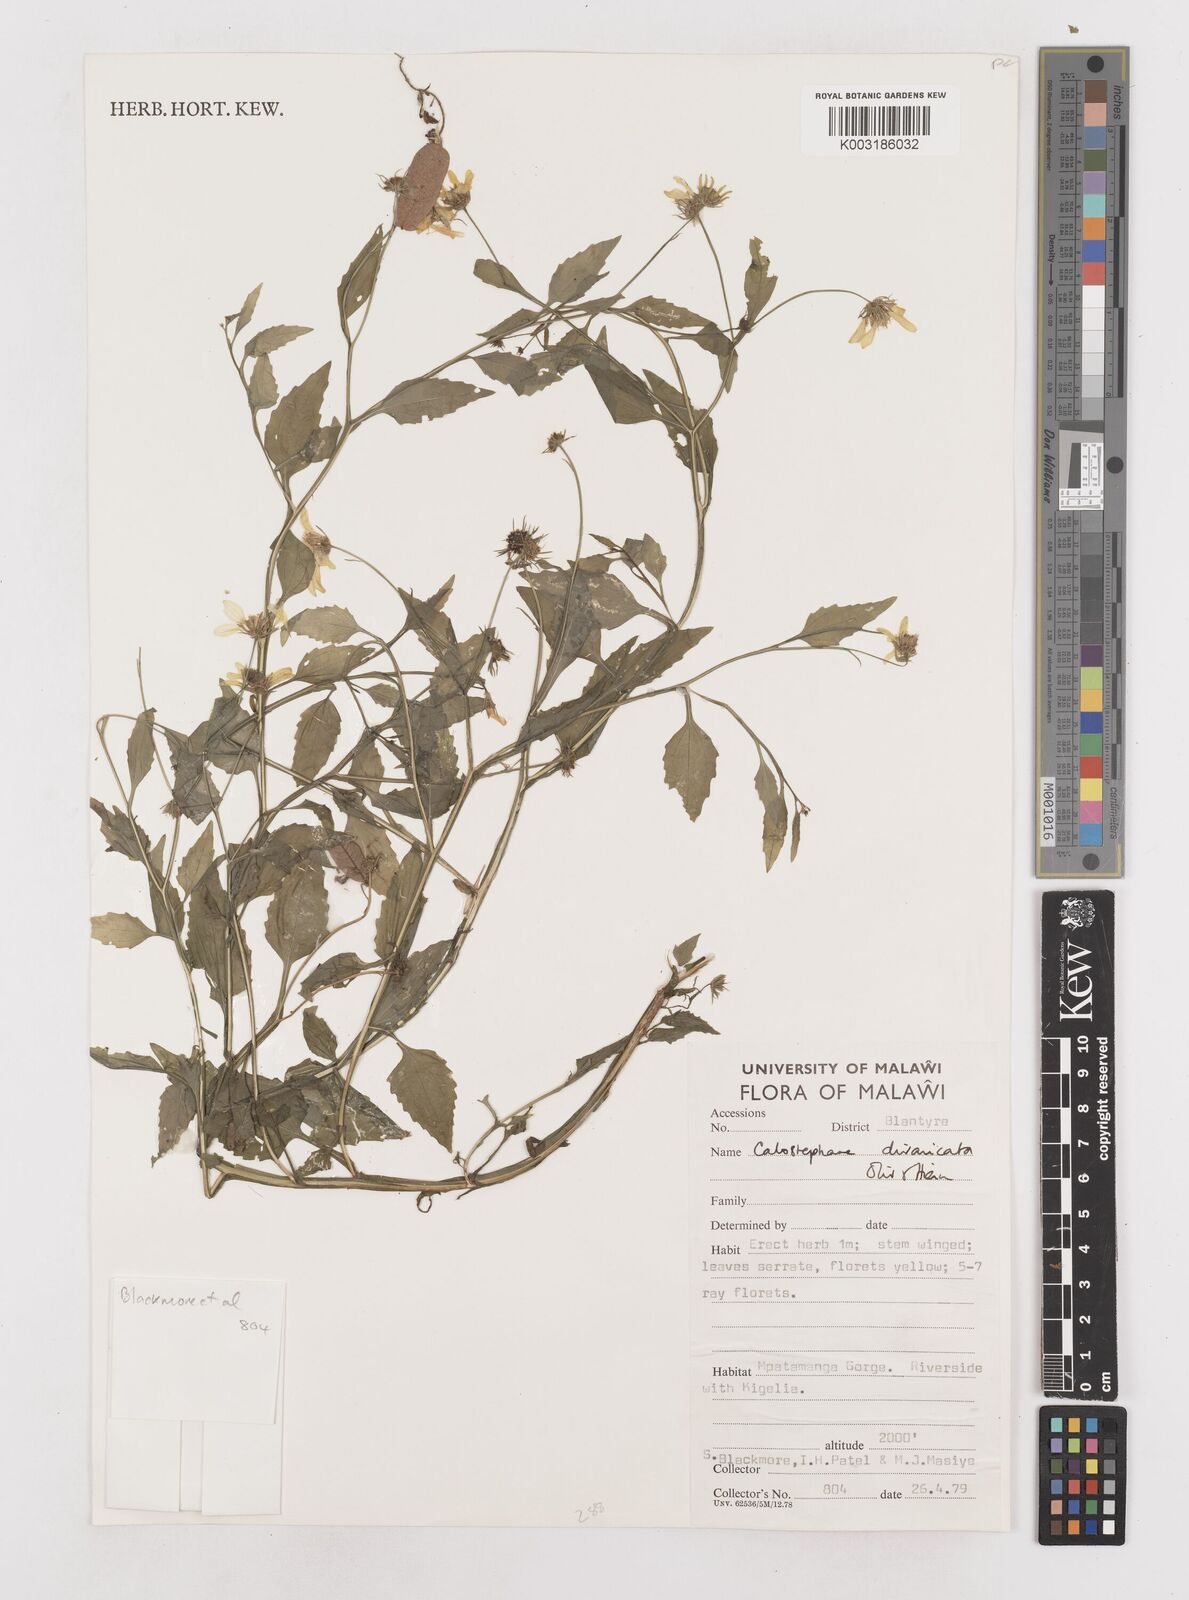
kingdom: Plantae
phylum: Tracheophyta
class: Magnoliopsida
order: Asterales
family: Asteraceae
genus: Calostephane
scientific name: Calostephane divaricata
